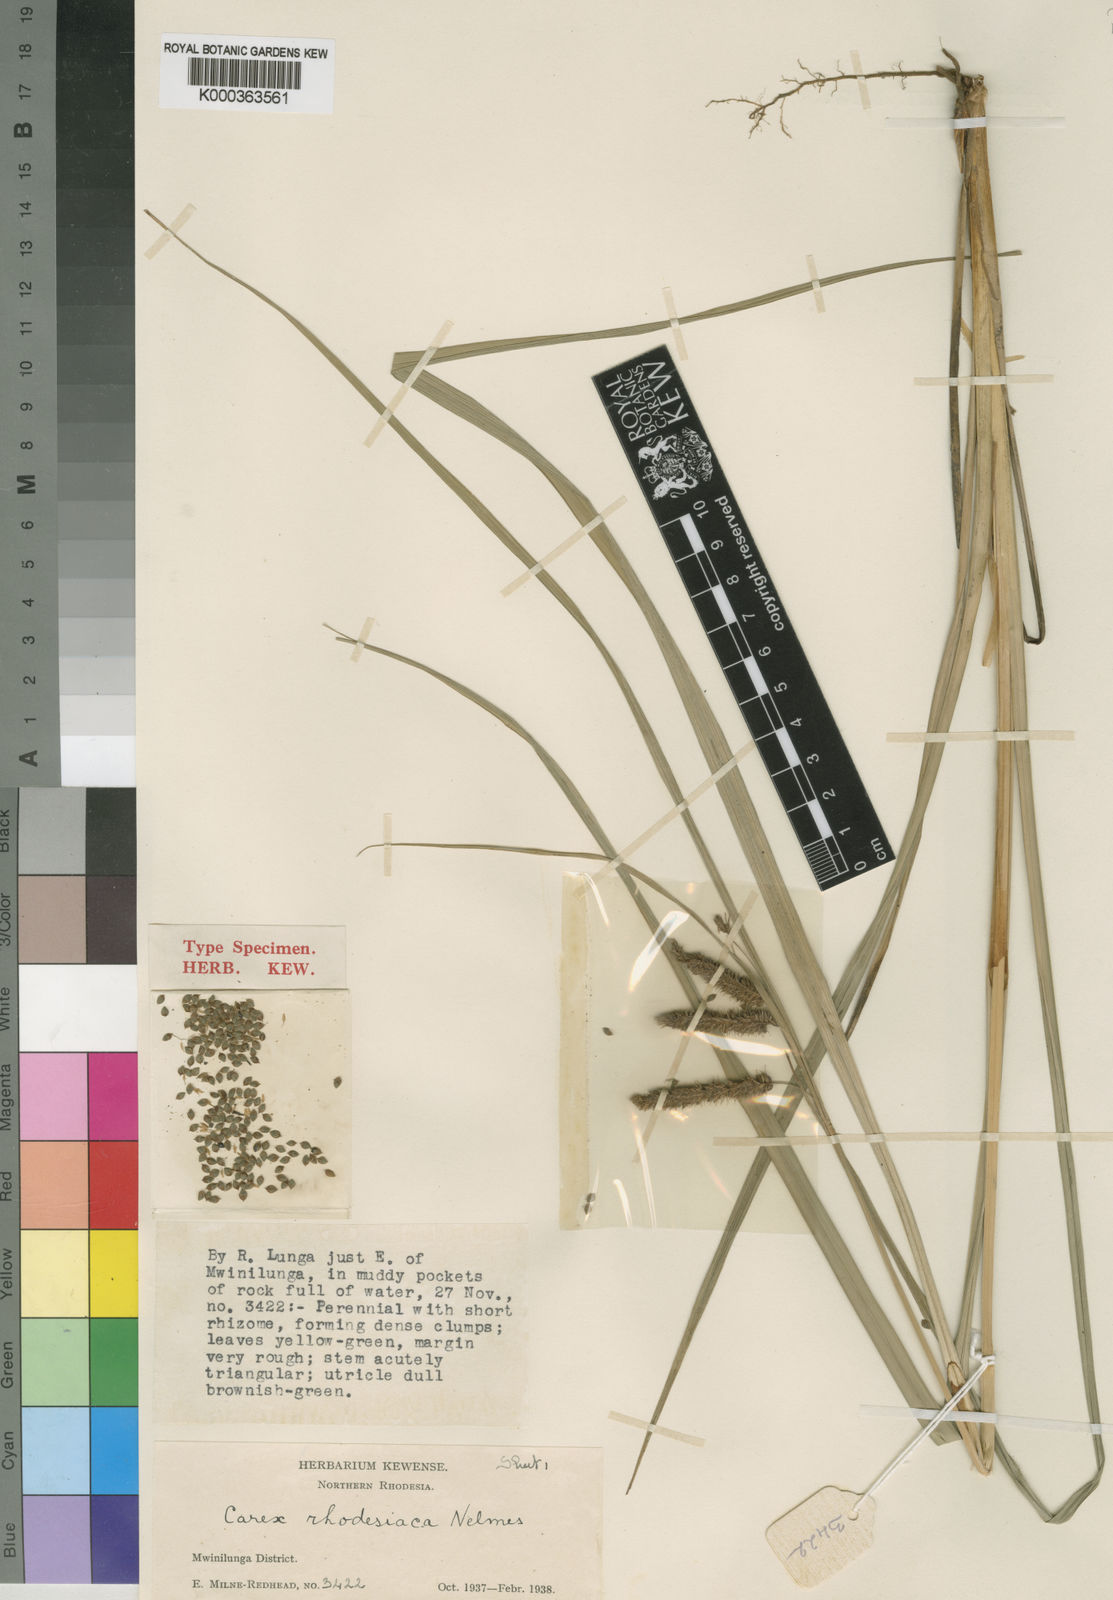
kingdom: Plantae
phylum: Tracheophyta
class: Liliopsida
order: Poales
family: Cyperaceae
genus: Carex
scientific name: Carex rhodesiaca
